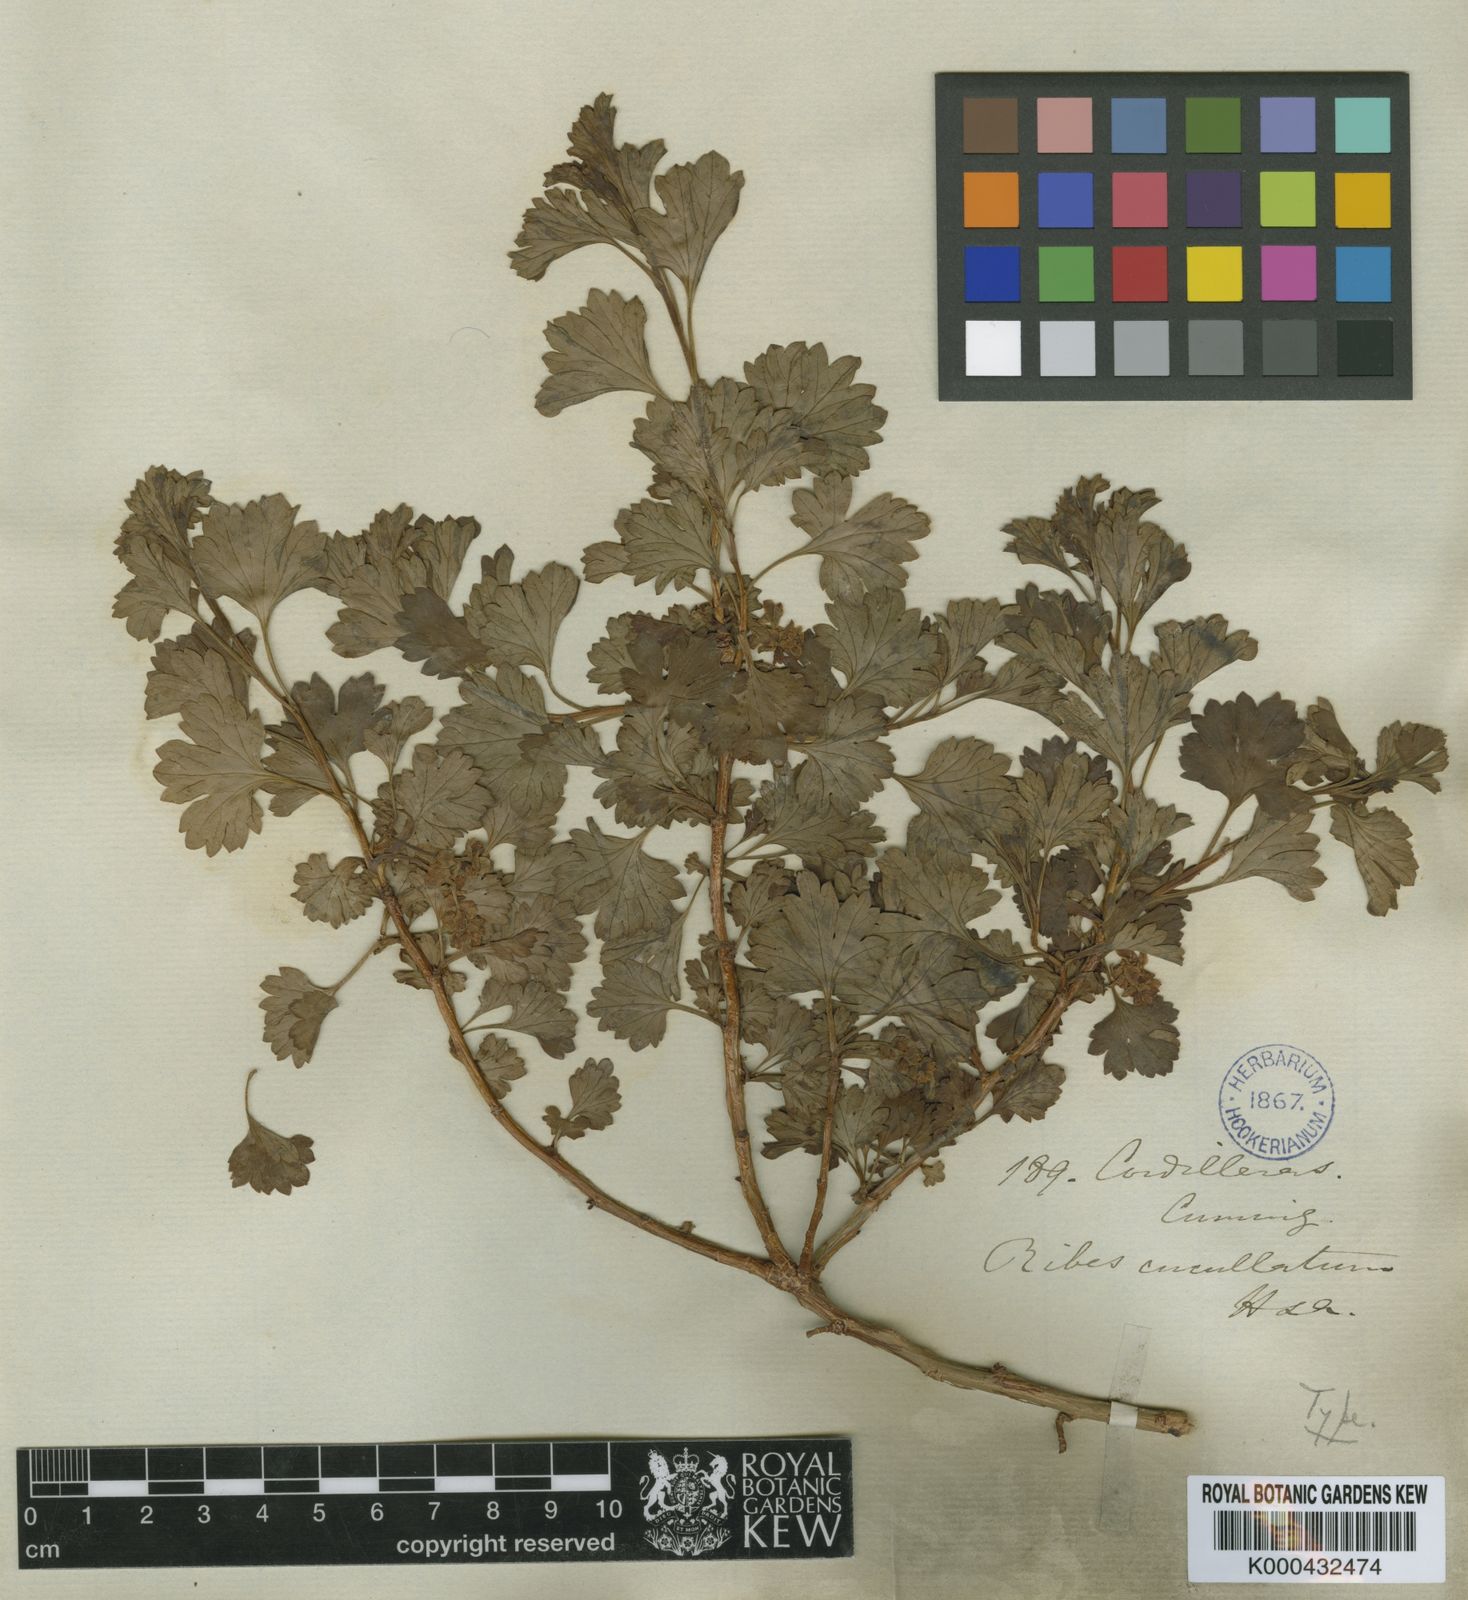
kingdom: Plantae
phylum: Tracheophyta
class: Magnoliopsida
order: Saxifragales
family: Grossulariaceae
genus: Ribes
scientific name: Ribes cucullatum
